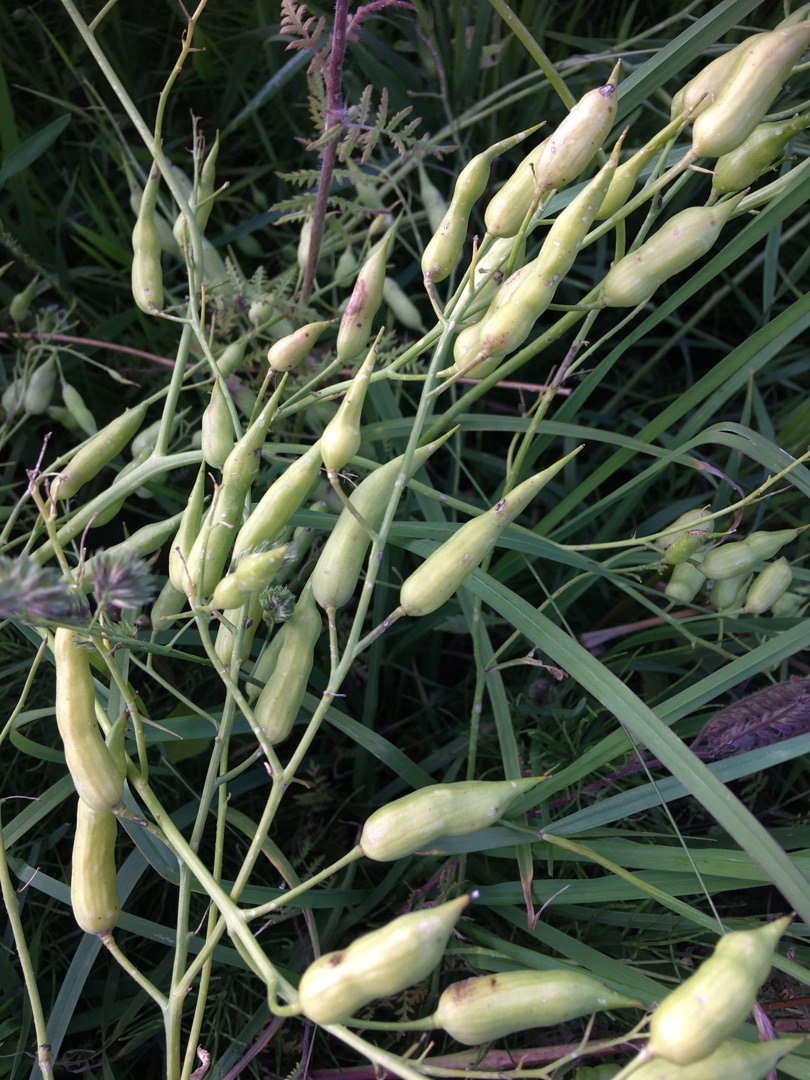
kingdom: Plantae
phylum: Tracheophyta
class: Magnoliopsida
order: Brassicales
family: Brassicaceae
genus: Raphanus
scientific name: Raphanus sativus
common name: Radise
